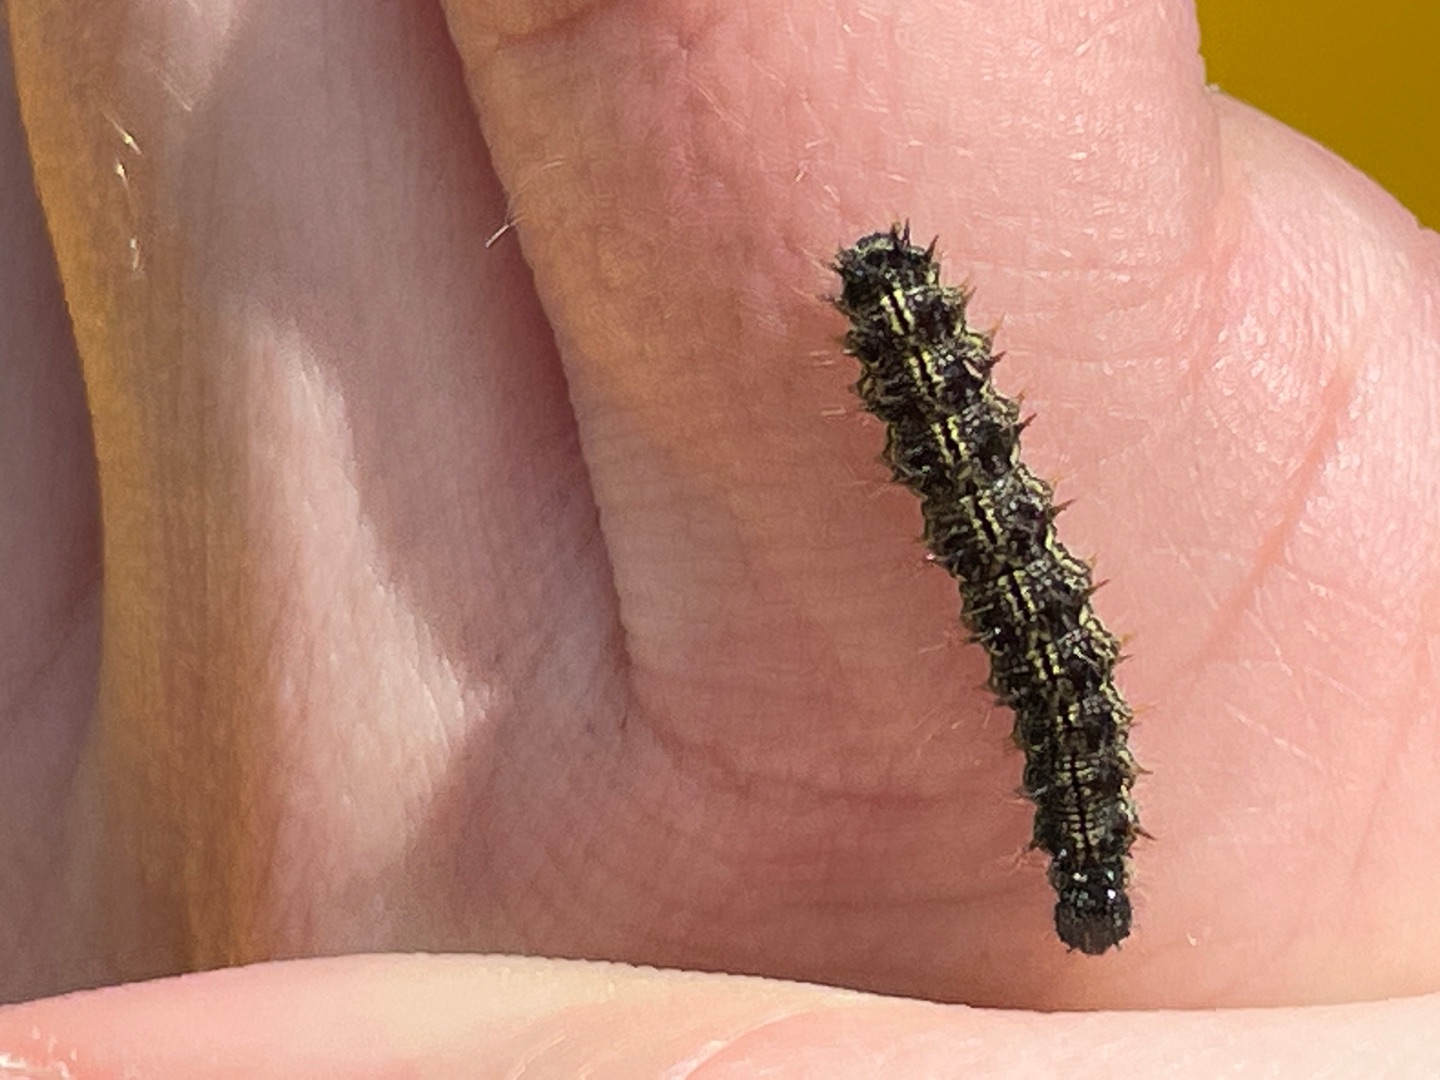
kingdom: Animalia
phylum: Arthropoda
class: Insecta
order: Lepidoptera
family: Nymphalidae
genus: Aglais
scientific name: Aglais urticae
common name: Nældens takvinge
